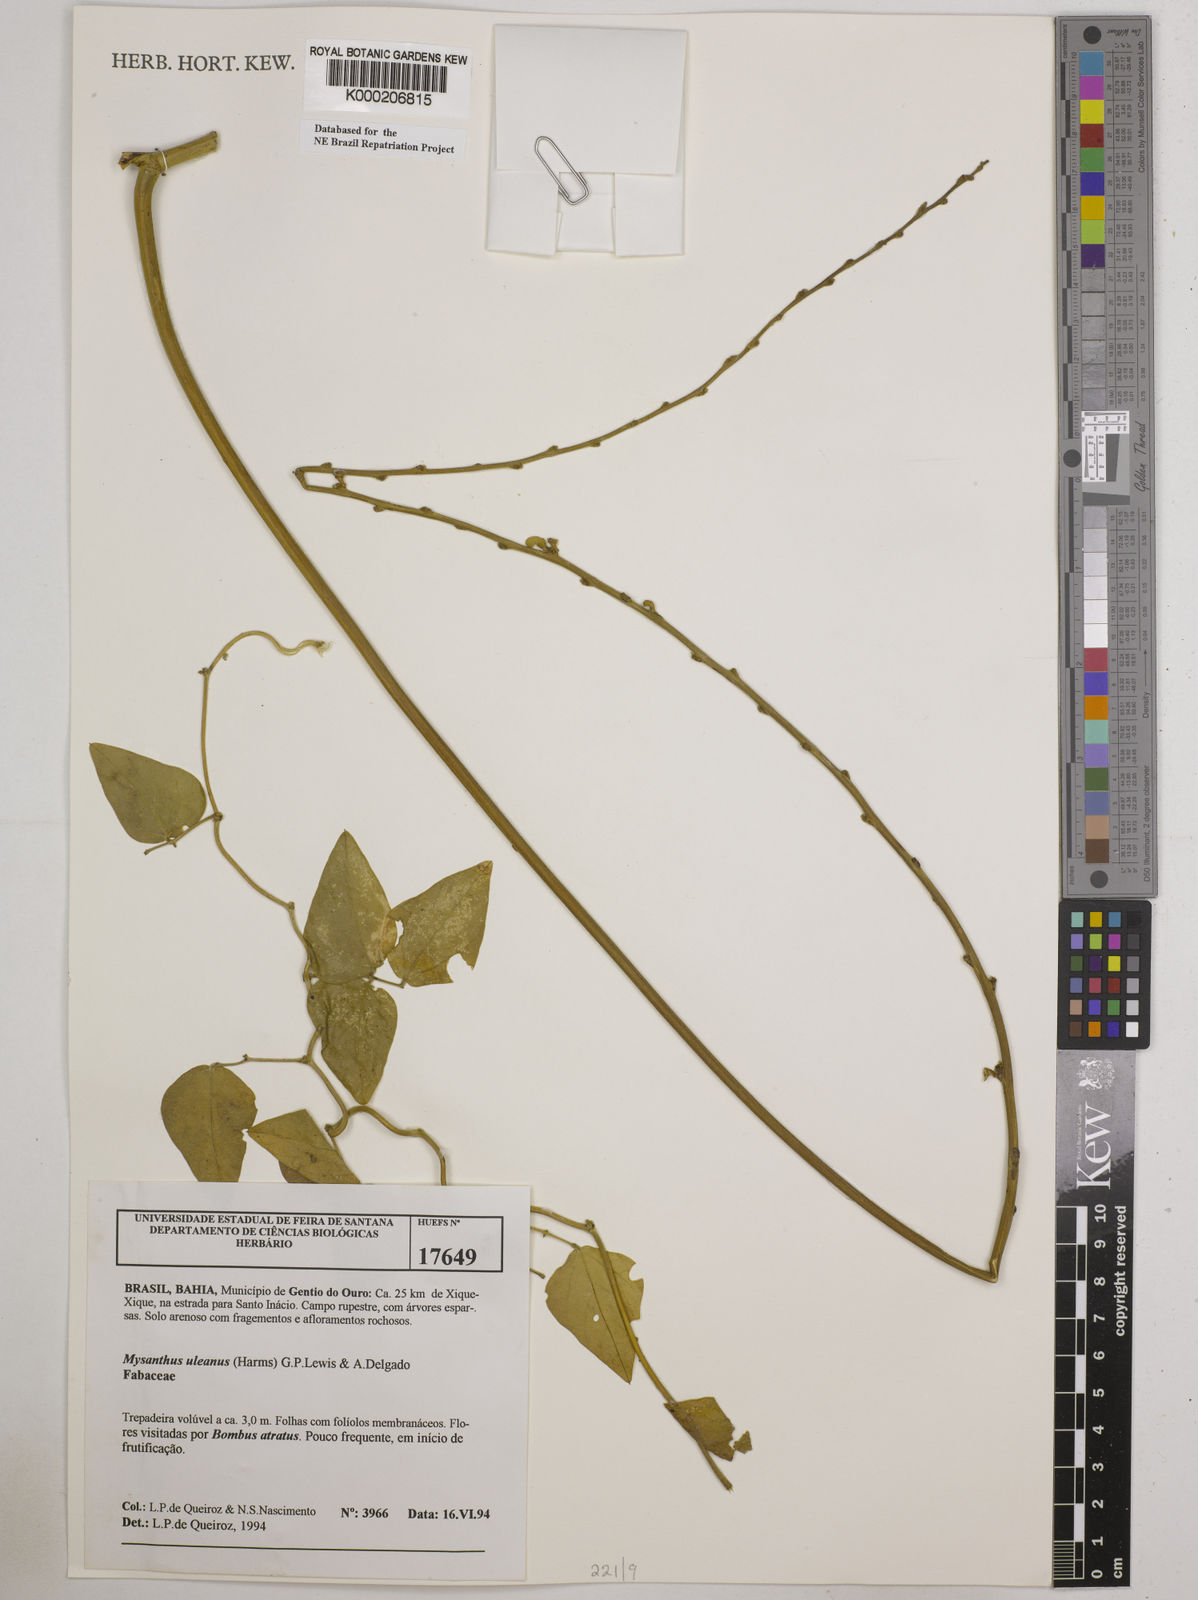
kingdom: Plantae
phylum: Tracheophyta
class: Magnoliopsida
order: Fabales
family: Fabaceae
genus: Mysanthus
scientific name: Mysanthus uleanus
